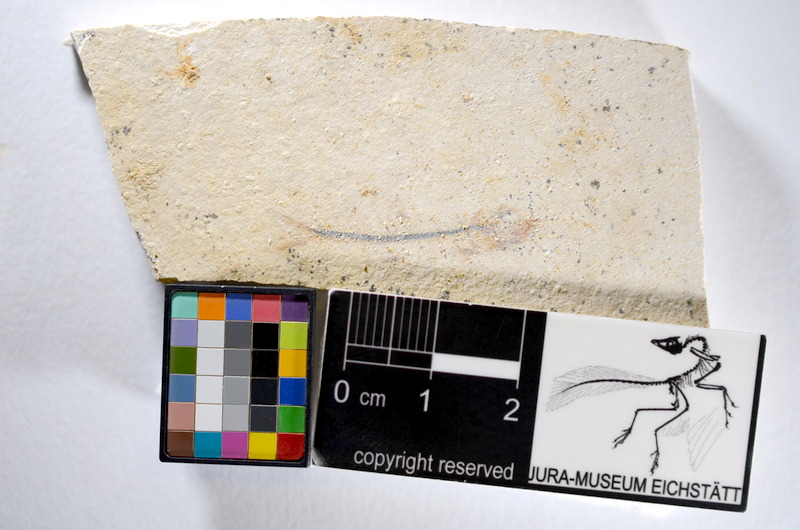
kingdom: Animalia
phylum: Chordata
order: Salmoniformes
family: Orthogonikleithridae
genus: Orthogonikleithrus
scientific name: Orthogonikleithrus hoelli
